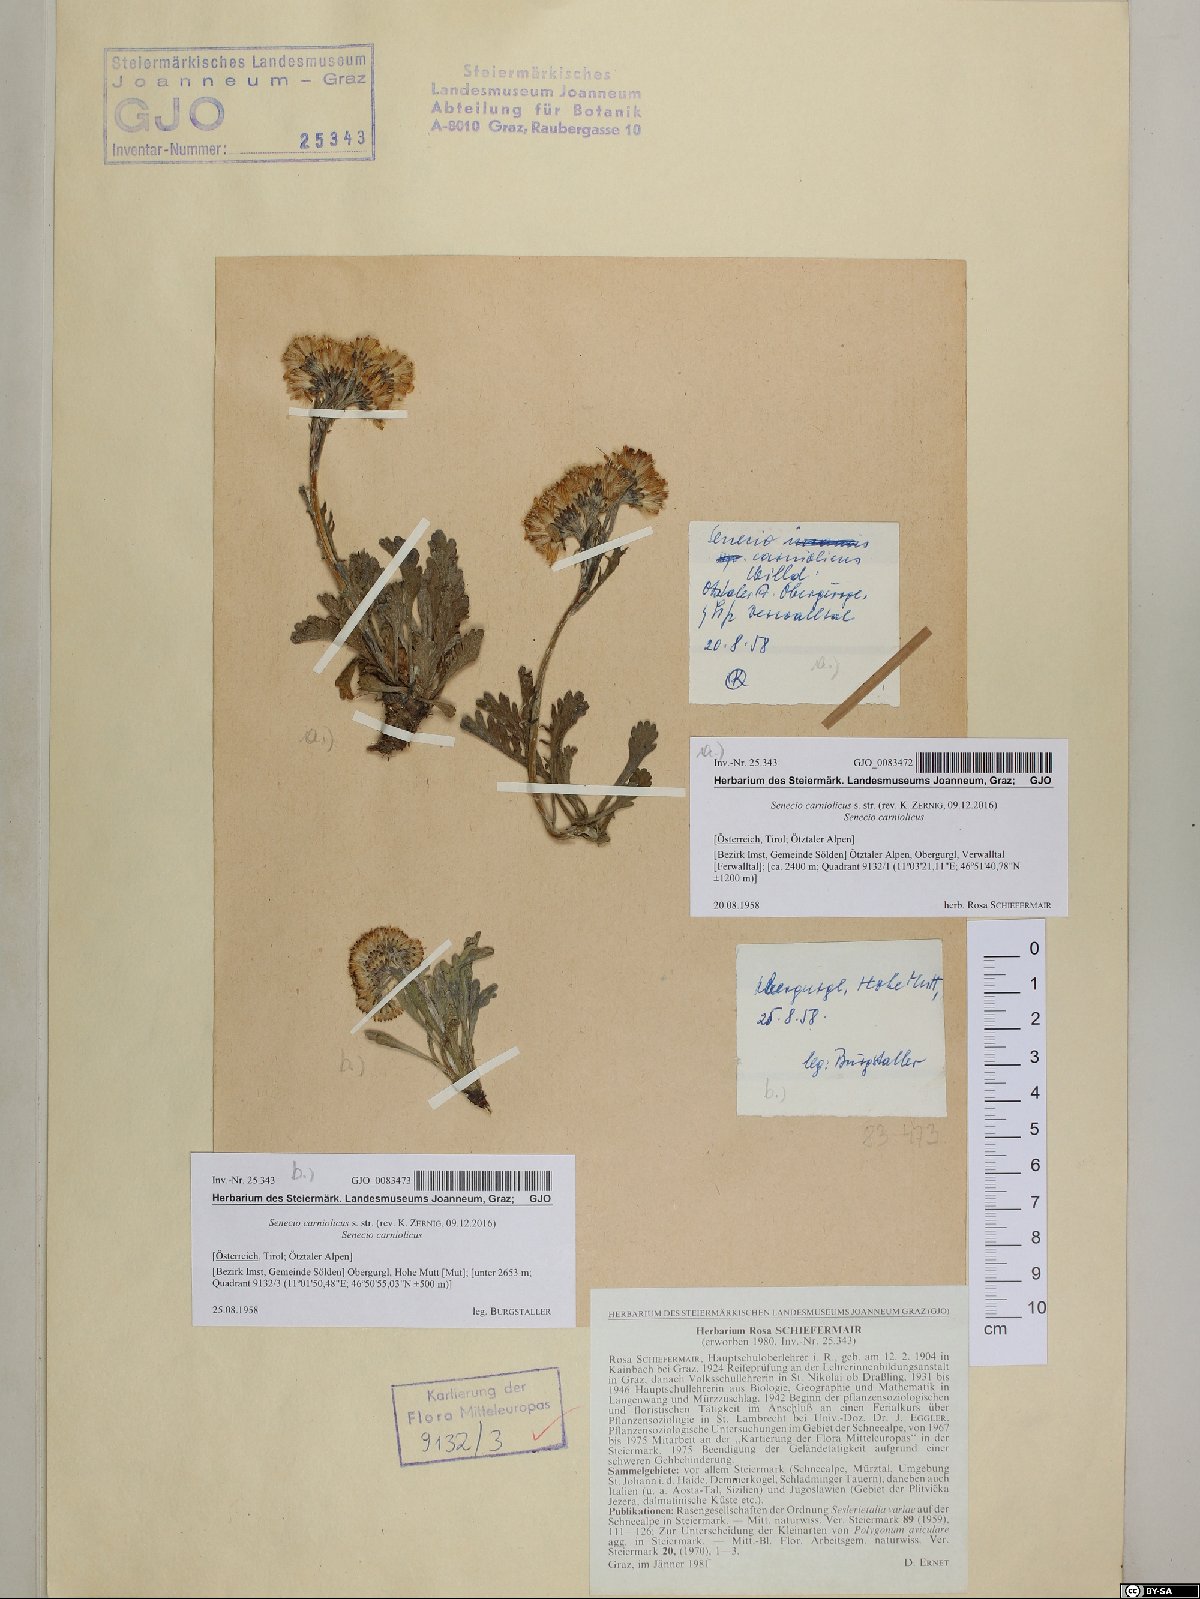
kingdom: Plantae
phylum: Tracheophyta
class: Magnoliopsida
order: Asterales
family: Asteraceae
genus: Jacobaea
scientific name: Jacobaea carniolica
